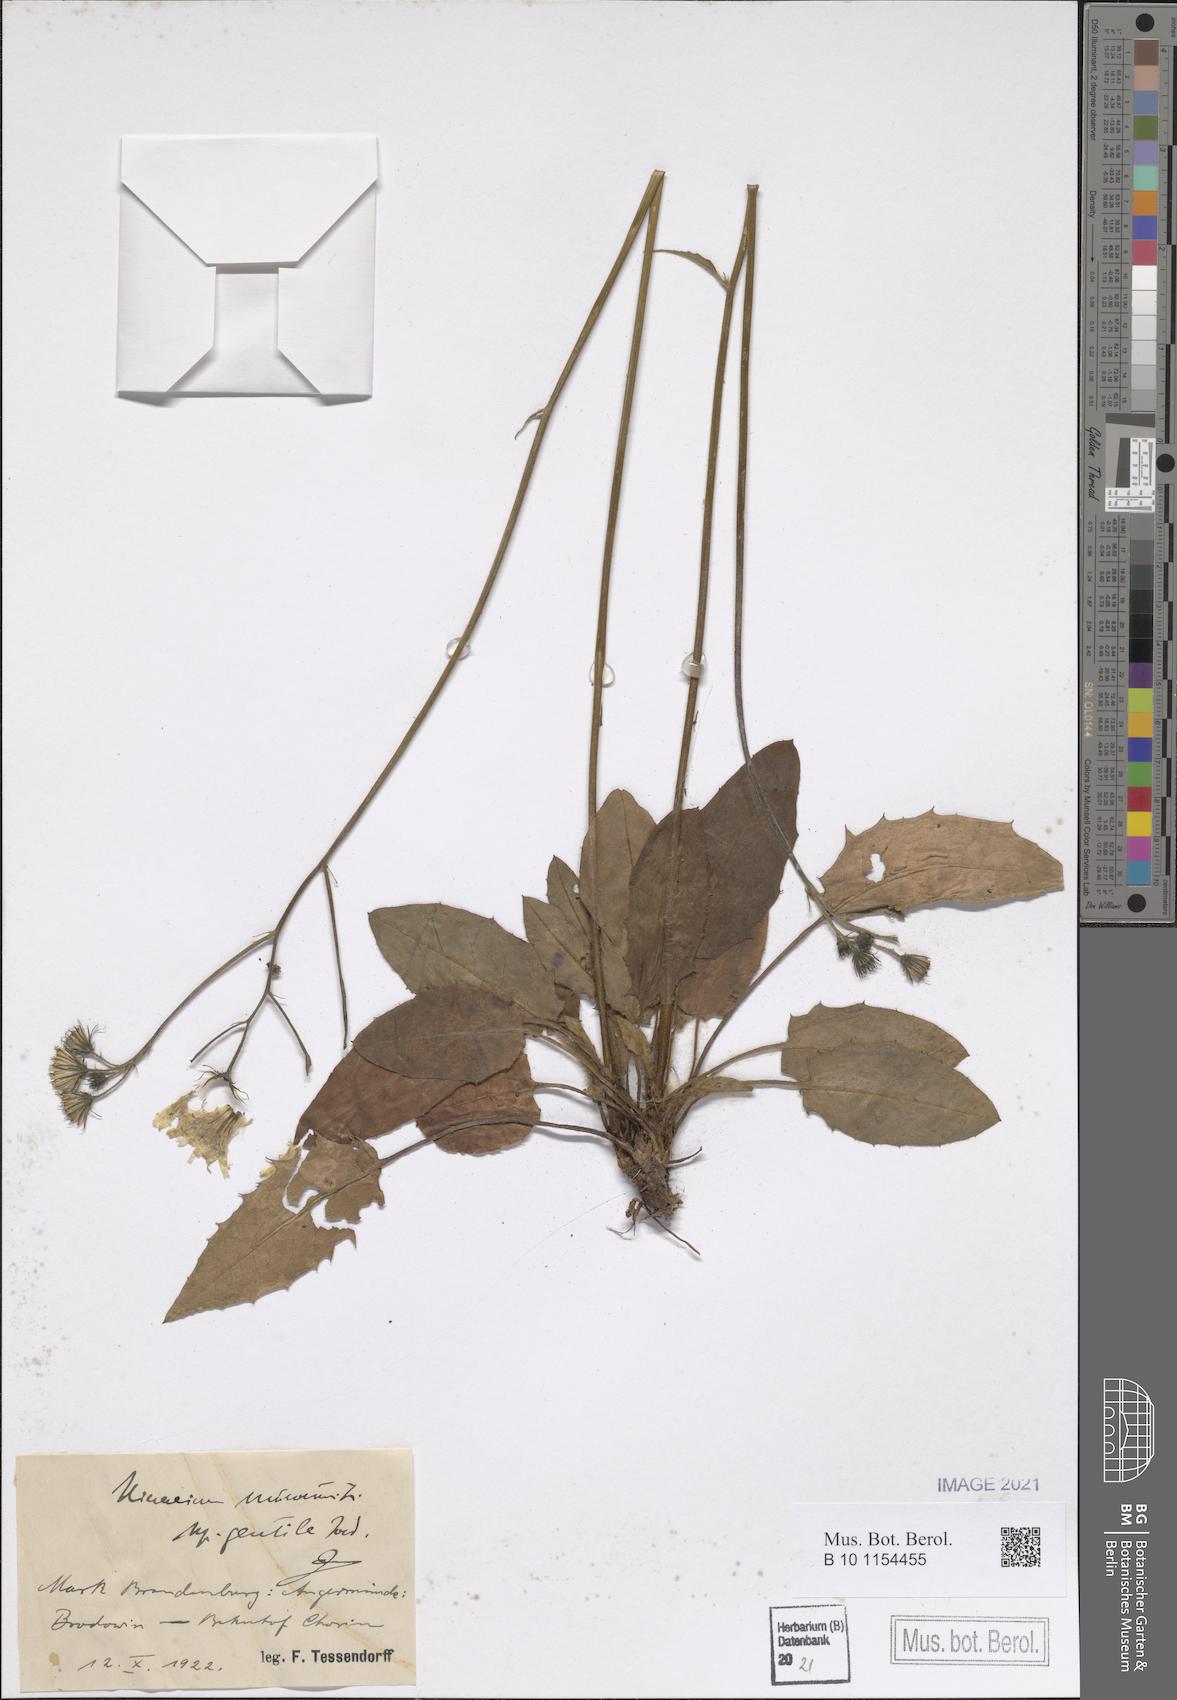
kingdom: Plantae
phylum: Tracheophyta
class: Magnoliopsida
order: Asterales
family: Asteraceae
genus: Hieracium
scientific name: Hieracium murorum
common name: Wall hawkweed
